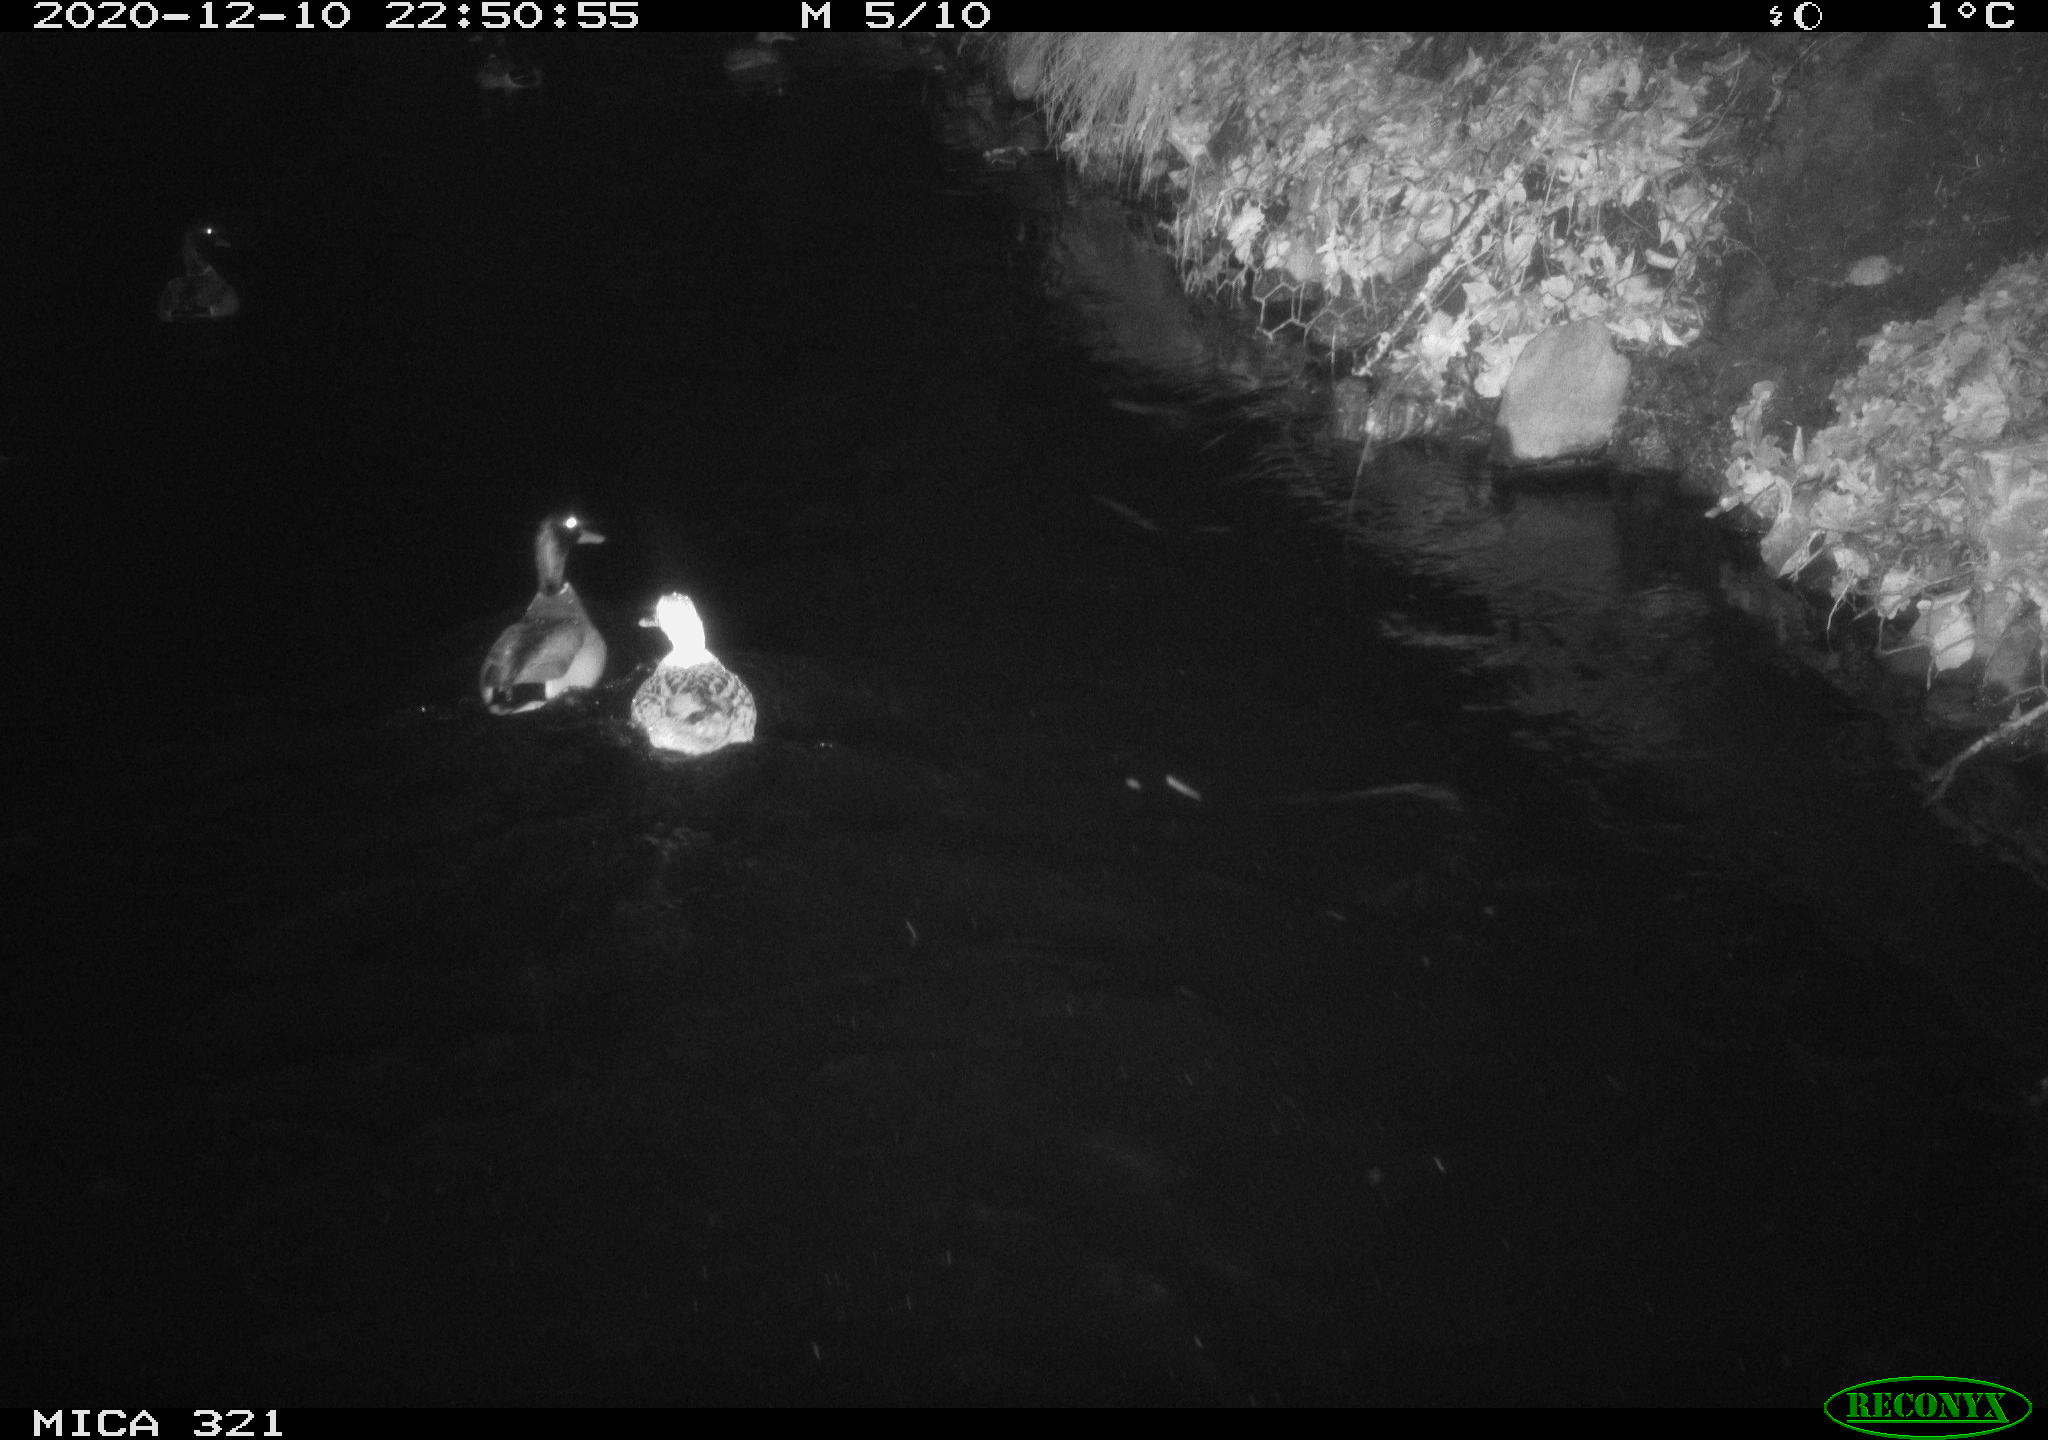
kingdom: Animalia
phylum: Chordata
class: Aves
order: Anseriformes
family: Anatidae
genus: Anas
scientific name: Anas platyrhynchos
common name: Mallard
